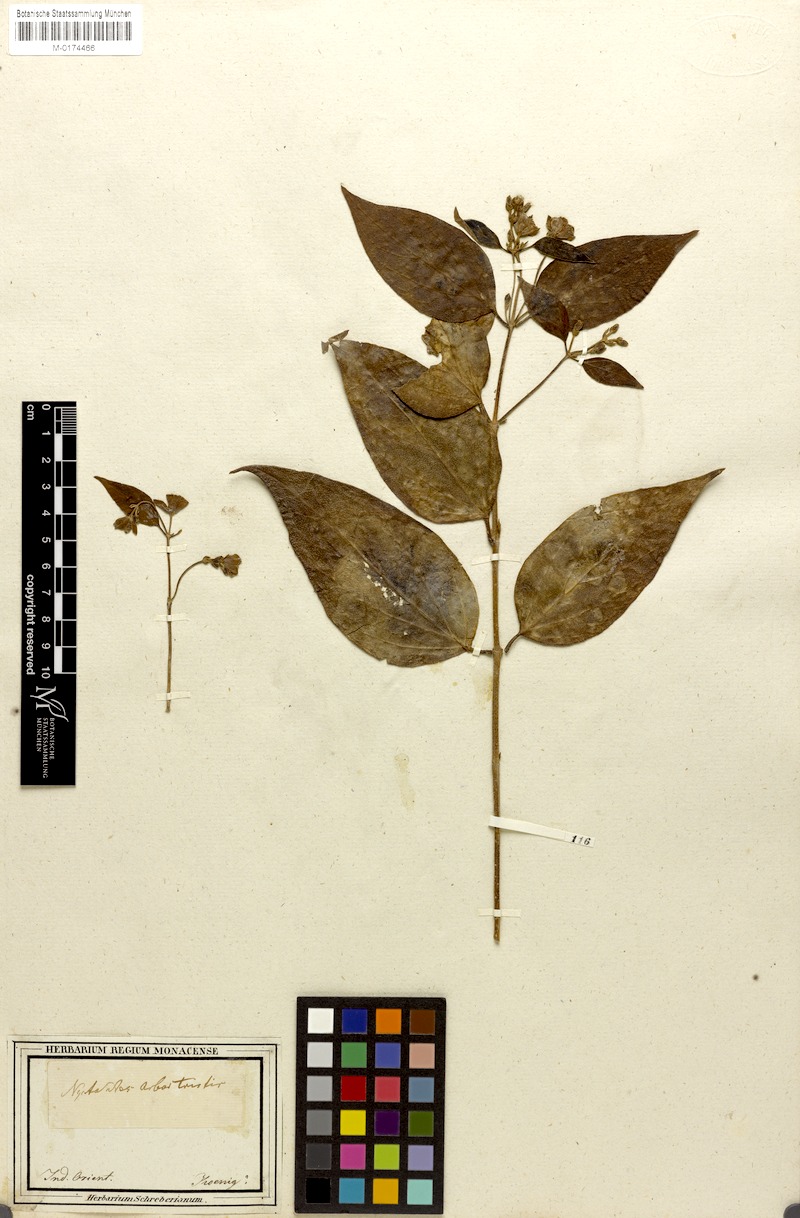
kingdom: Plantae
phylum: Tracheophyta
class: Magnoliopsida
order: Lamiales
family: Oleaceae
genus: Nyctanthes
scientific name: Nyctanthes arbor-tristis
